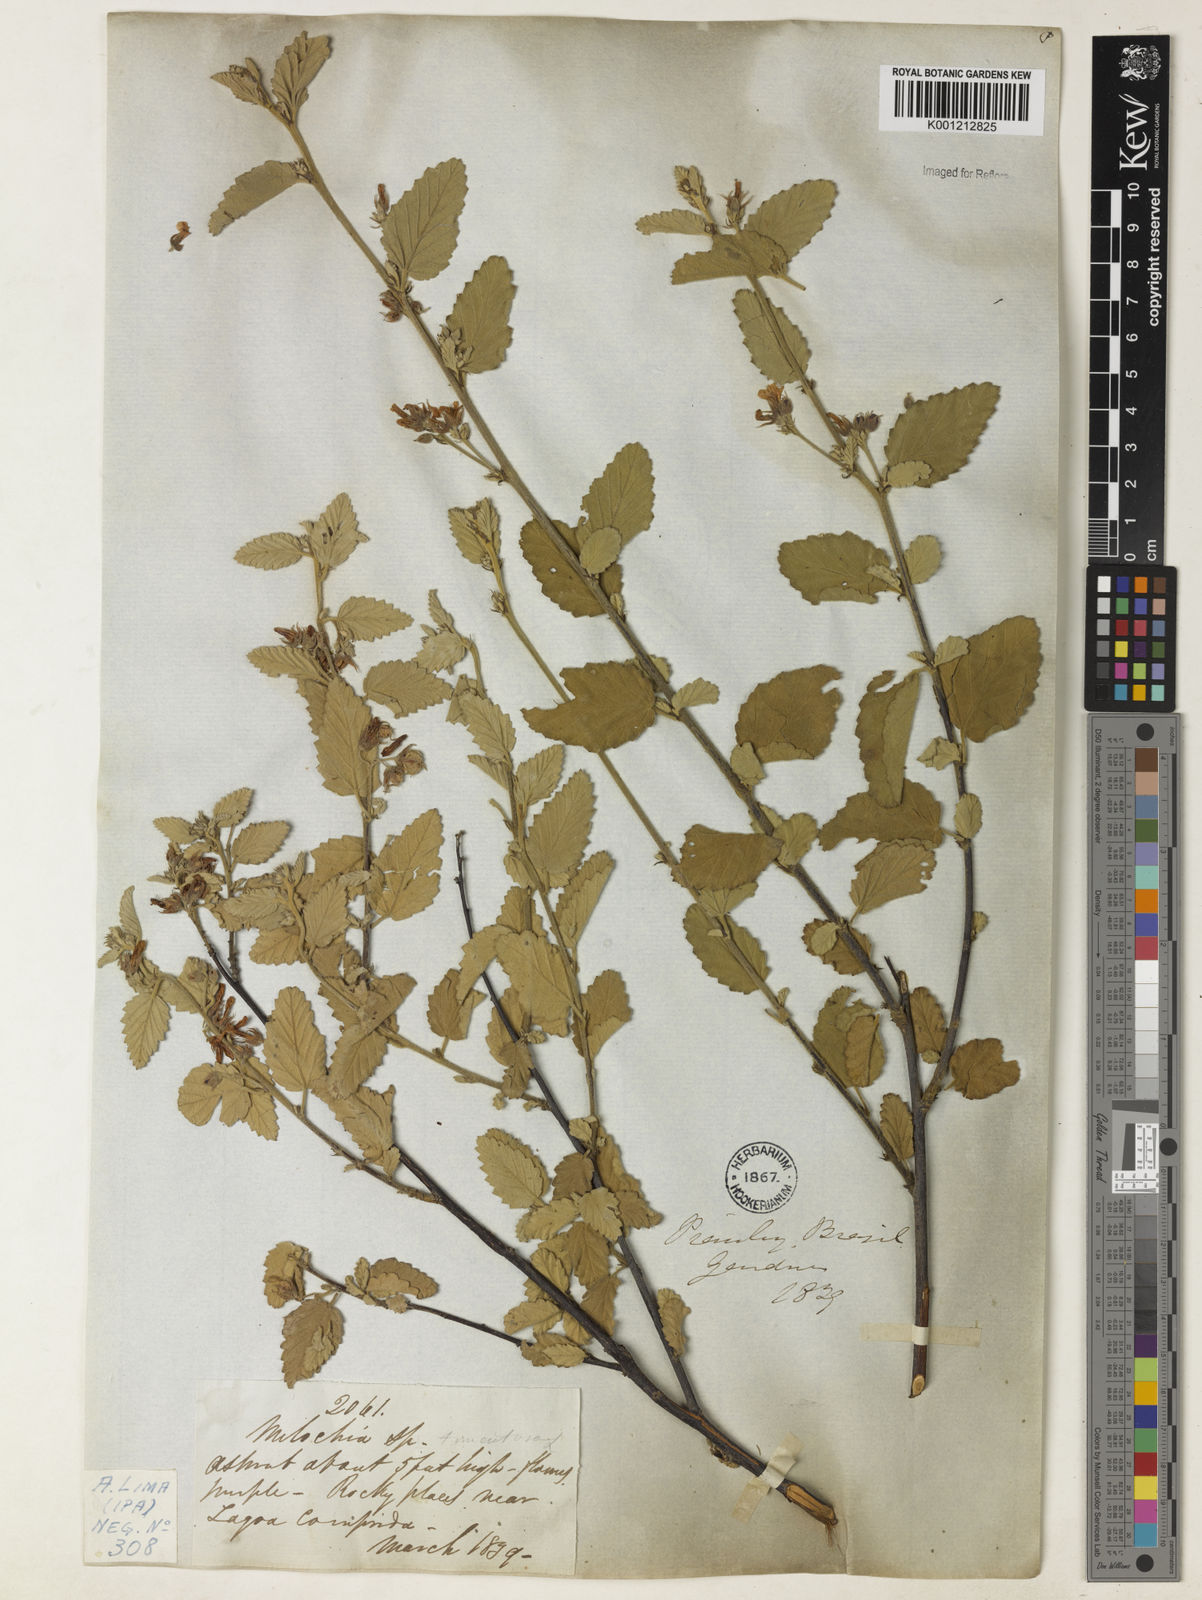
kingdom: Plantae
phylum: Tracheophyta
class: Magnoliopsida
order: Malvales
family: Malvaceae
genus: Melochia
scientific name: Melochia tomentosa
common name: Black torch
